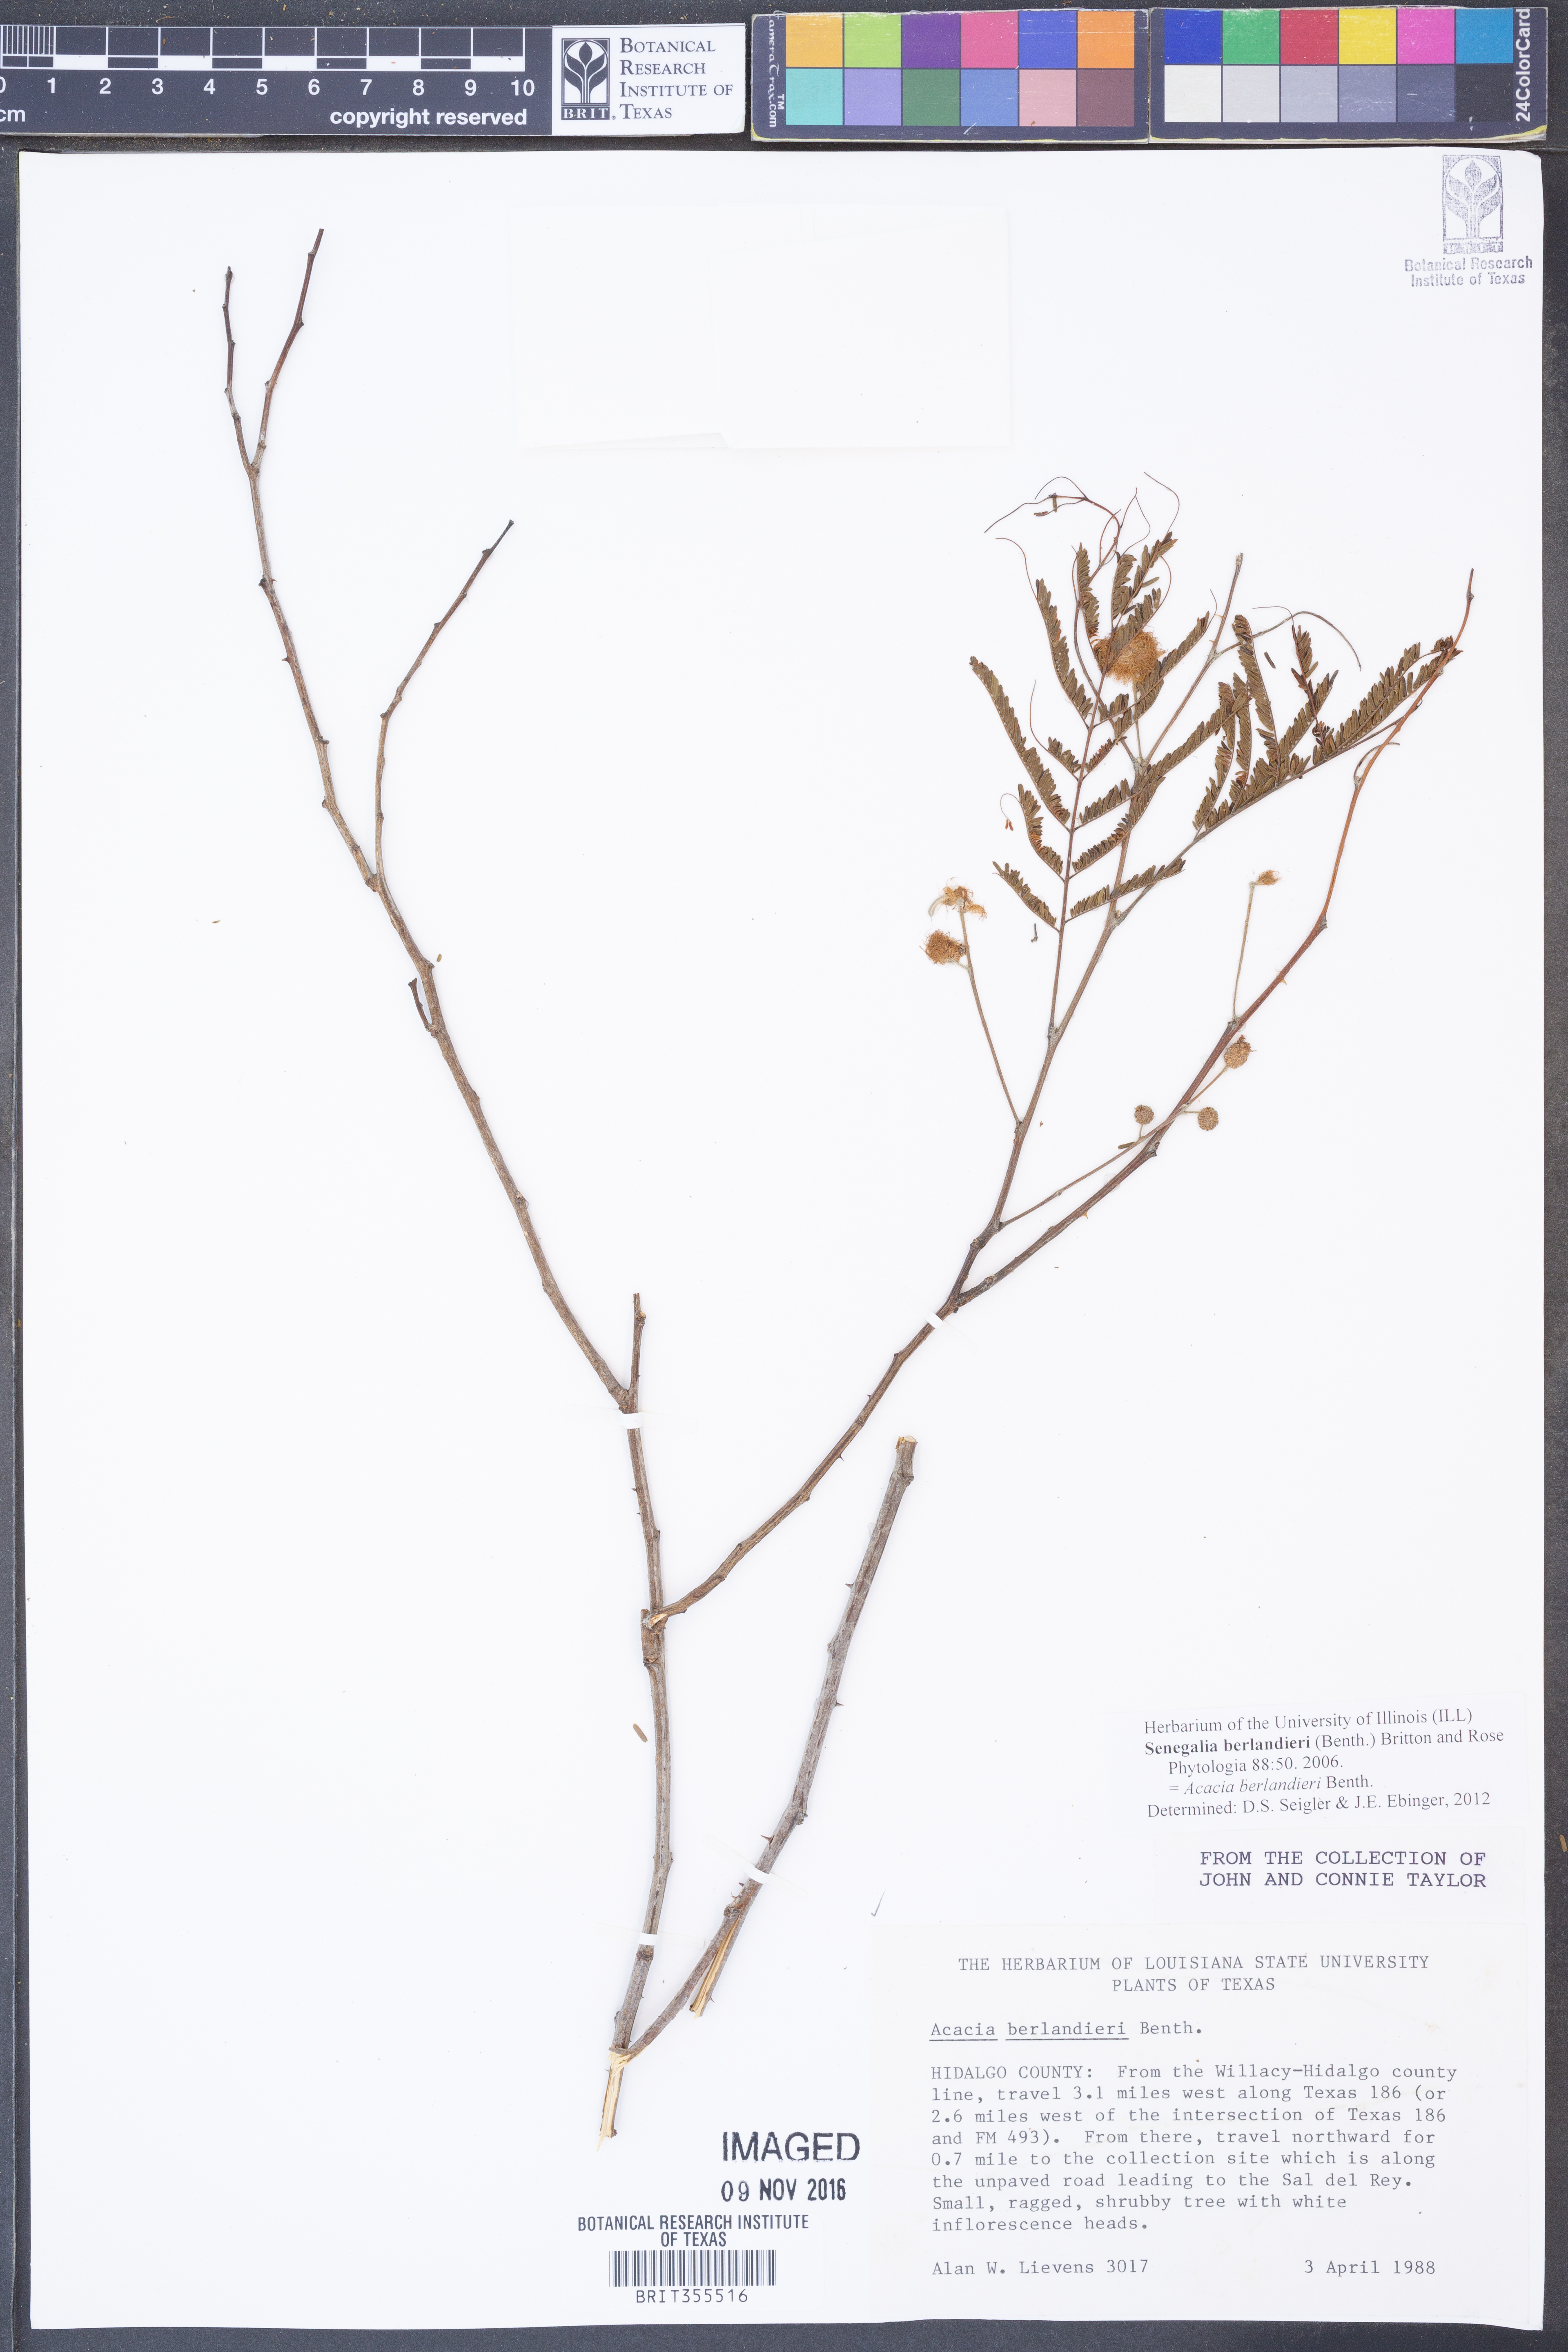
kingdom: Plantae
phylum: Tracheophyta
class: Magnoliopsida
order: Fabales
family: Fabaceae
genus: Senegalia
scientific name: Senegalia berlandieri
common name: Berlandier acacia
